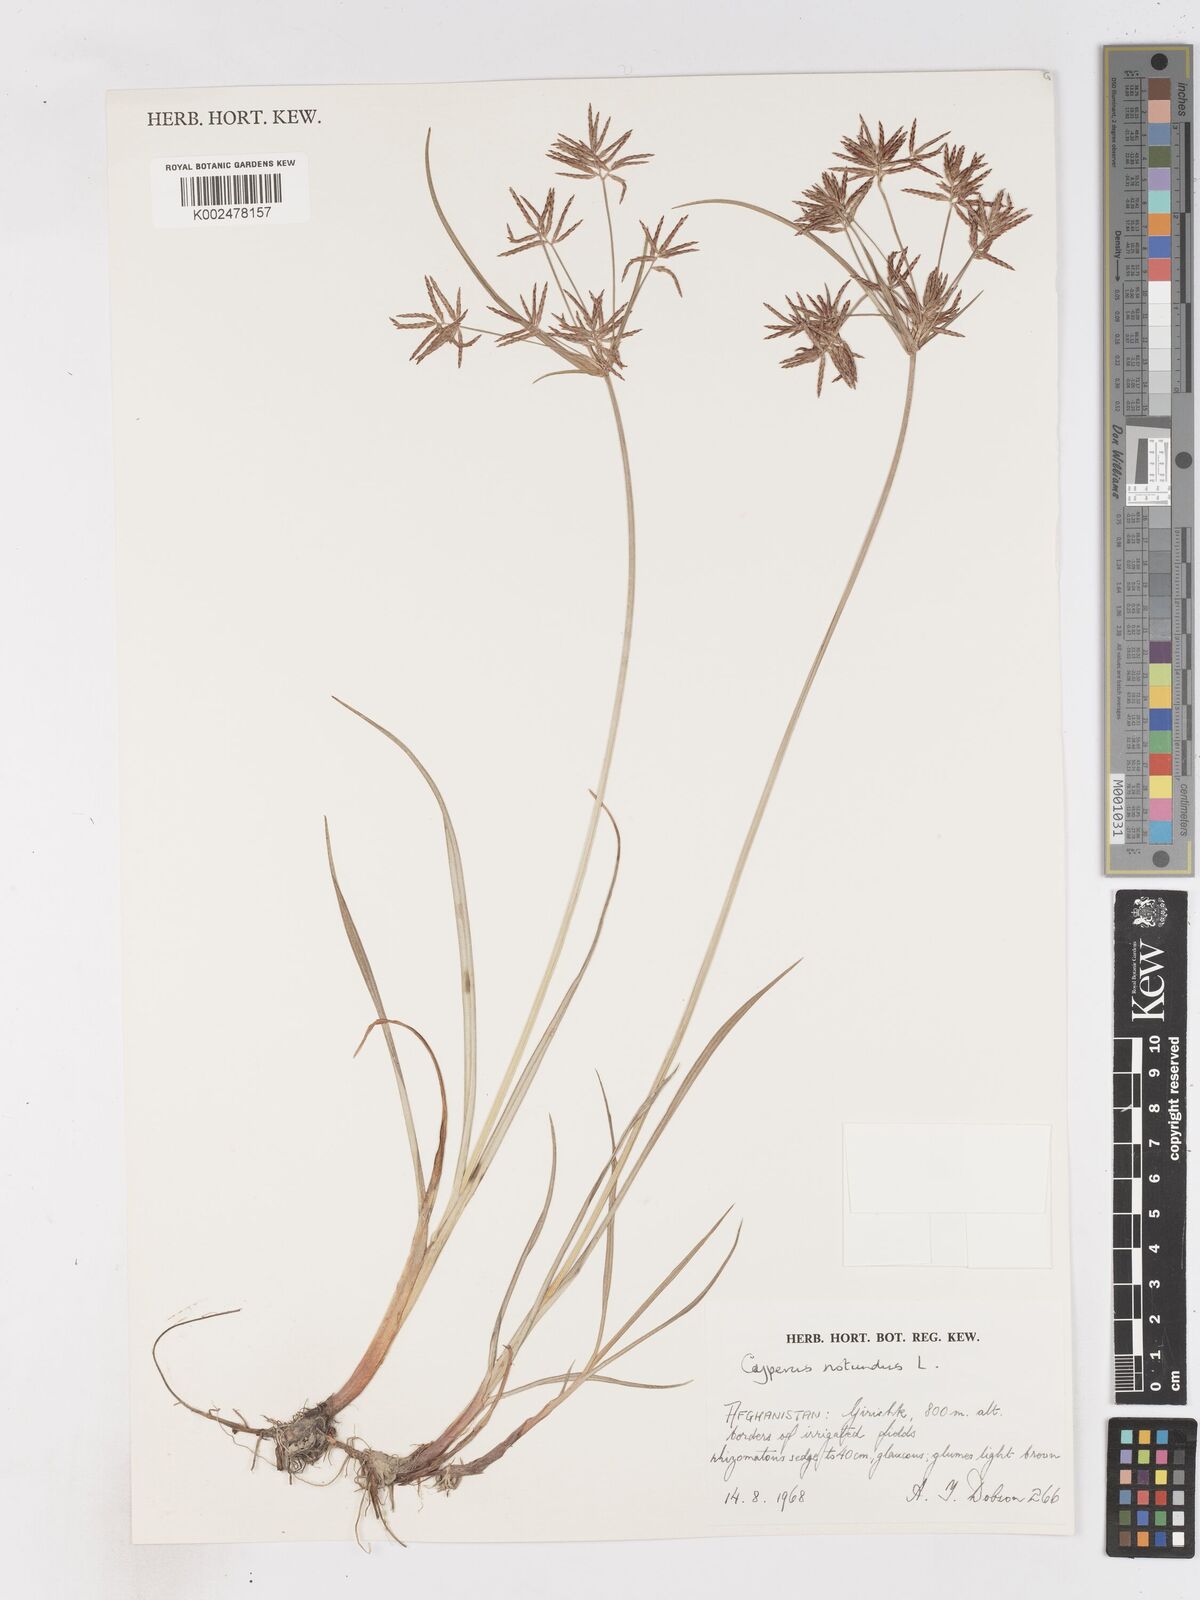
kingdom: Plantae
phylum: Tracheophyta
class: Liliopsida
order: Poales
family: Cyperaceae
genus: Cyperus
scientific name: Cyperus rotundus
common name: Nutgrass
